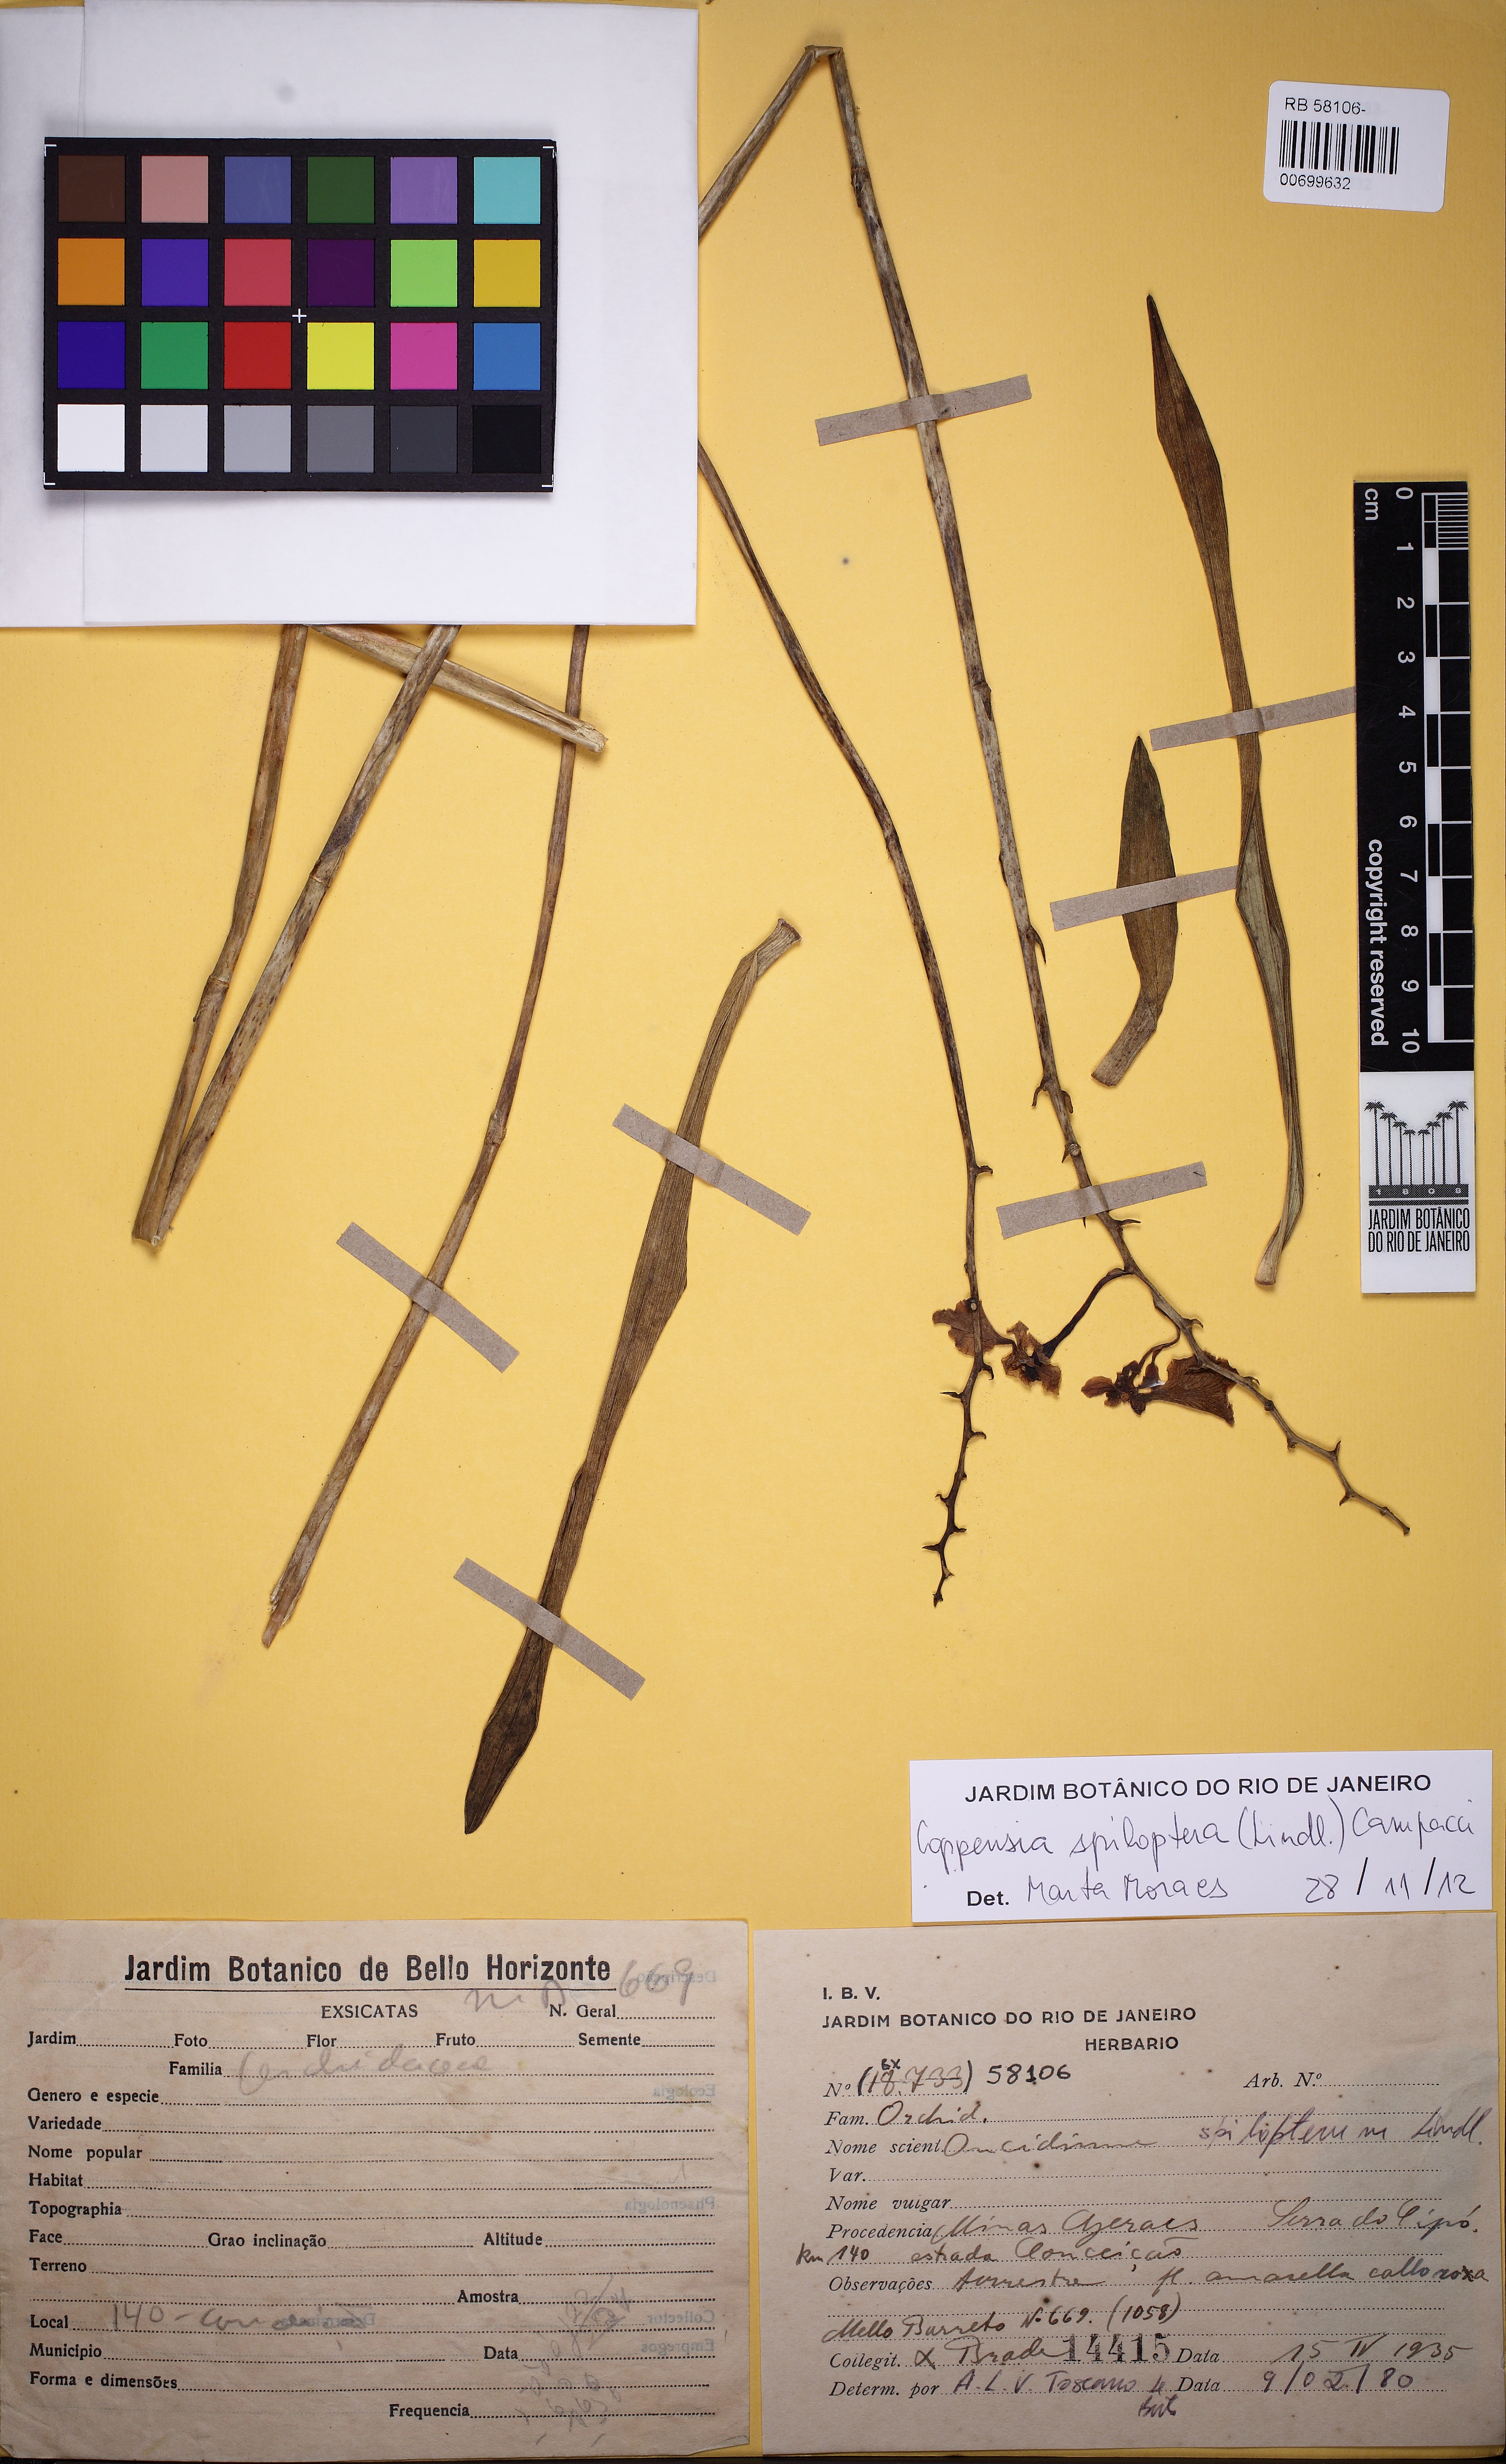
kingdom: Plantae
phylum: Tracheophyta
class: Liliopsida
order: Asparagales
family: Orchidaceae
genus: Gomesa
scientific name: Gomesa maculosa
